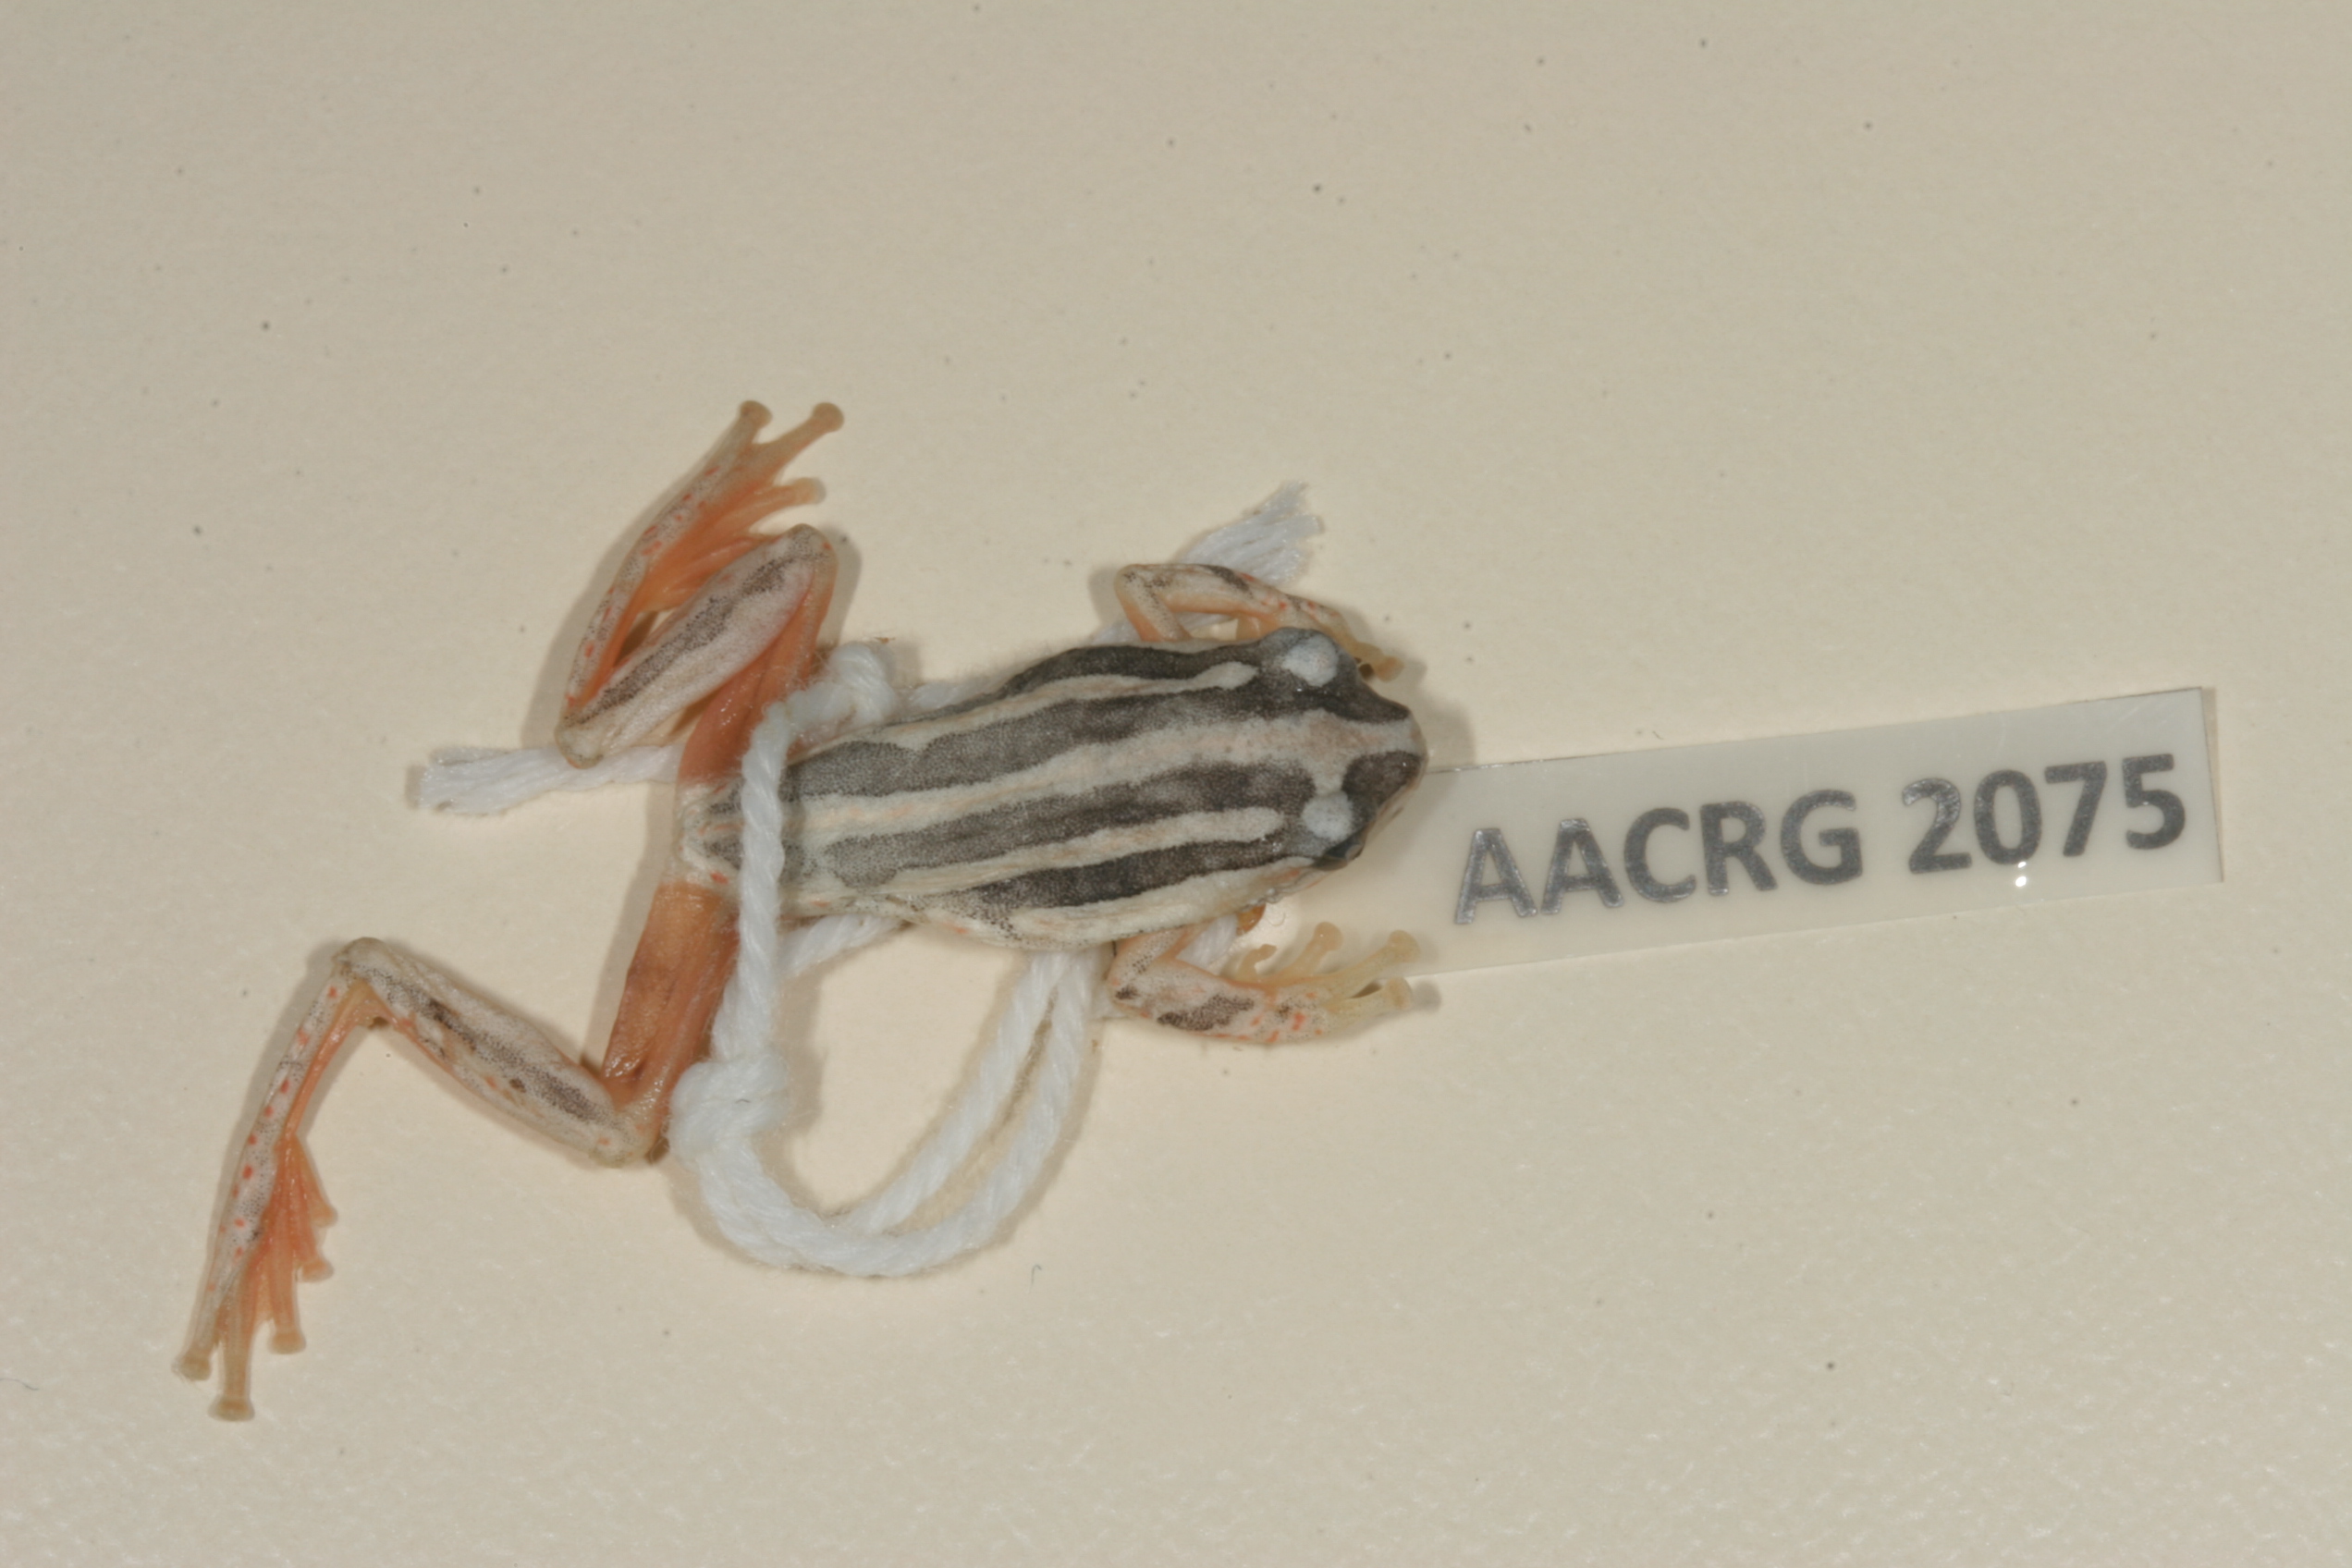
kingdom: Animalia
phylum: Chordata
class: Amphibia
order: Anura
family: Hyperoliidae
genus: Hyperolius
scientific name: Hyperolius marmoratus
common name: Painted reed frog
